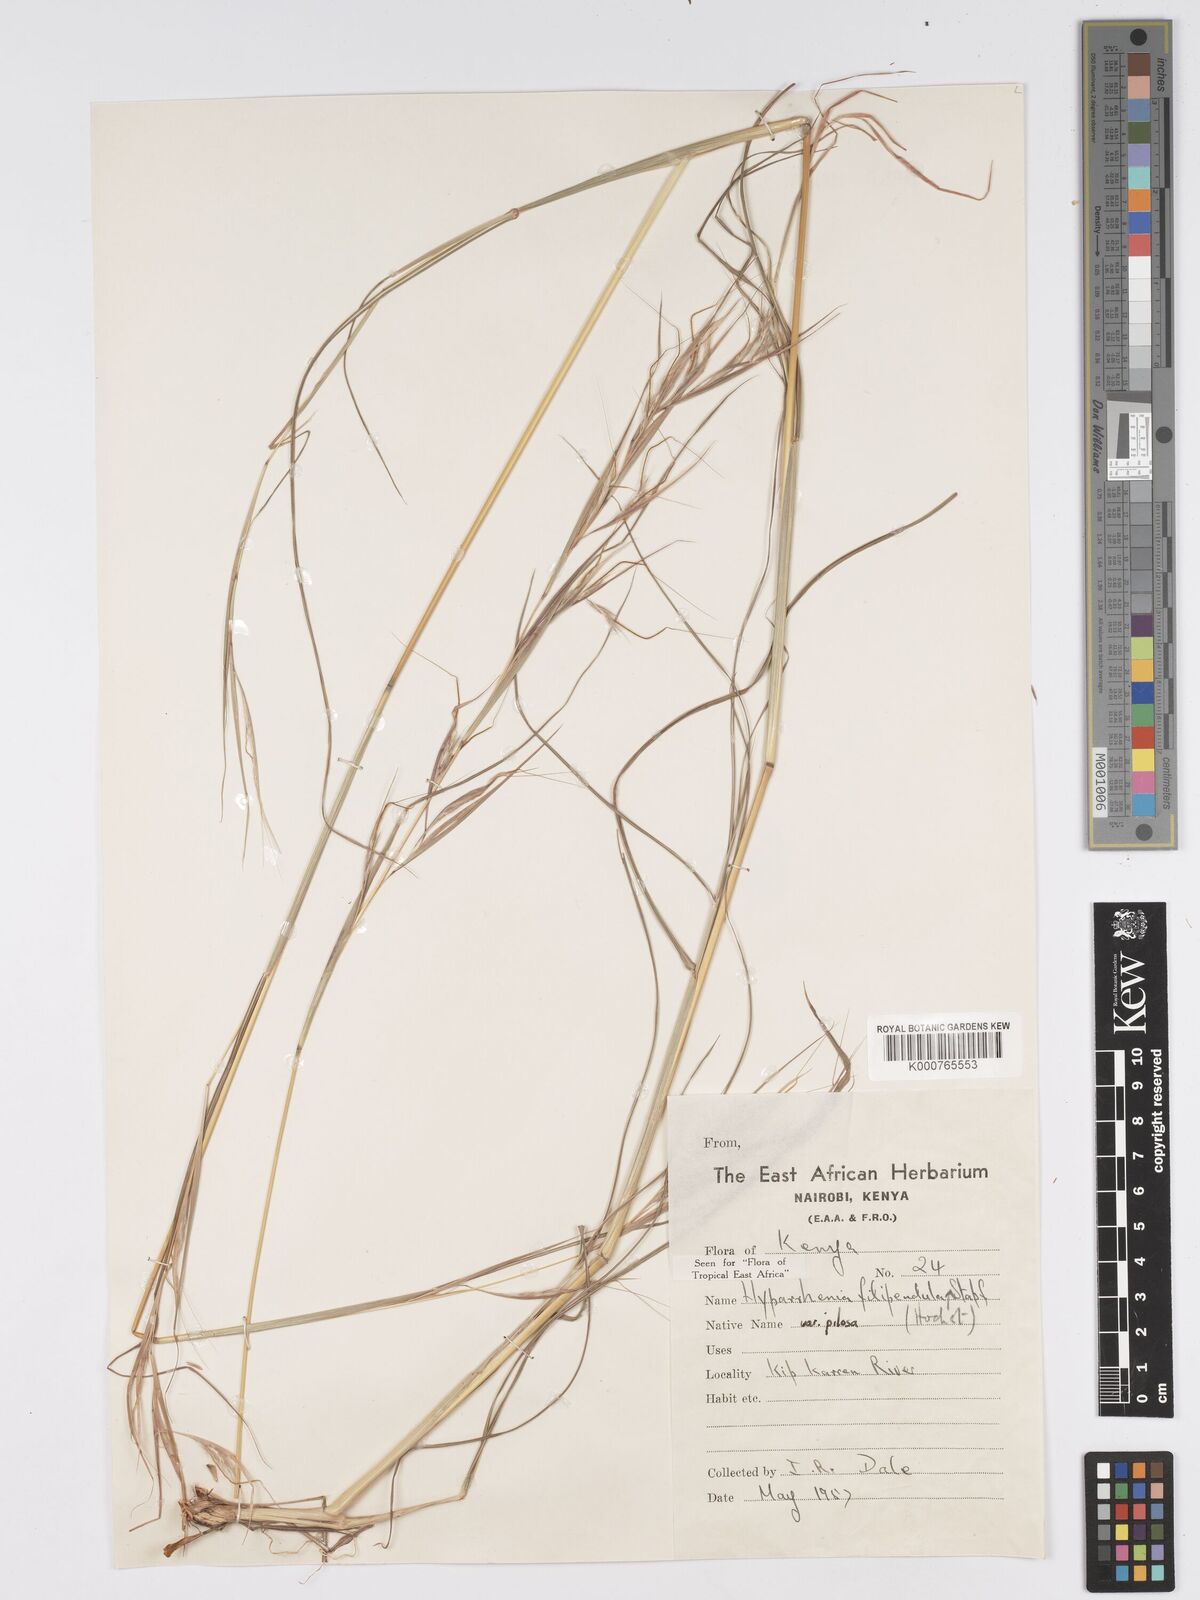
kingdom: Plantae
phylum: Tracheophyta
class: Liliopsida
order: Poales
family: Poaceae
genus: Hyparrhenia
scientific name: Hyparrhenia filipendula
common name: Tambookie grass
